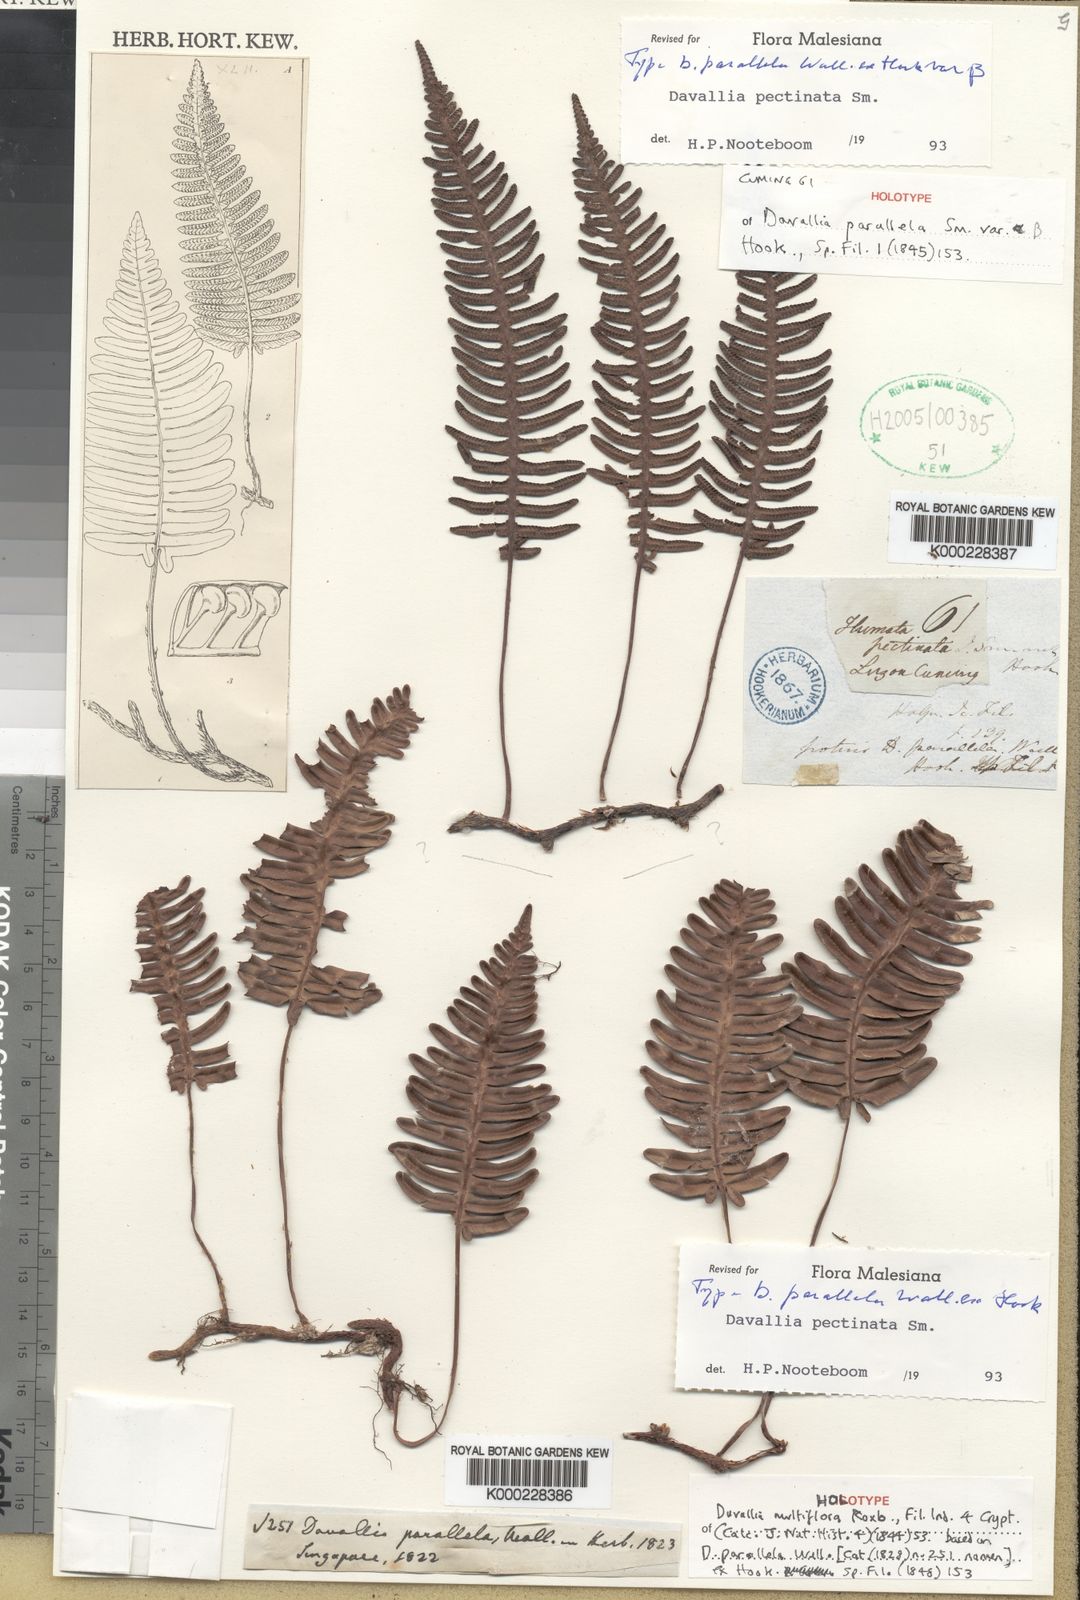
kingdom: Plantae
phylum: Tracheophyta
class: Polypodiopsida
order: Polypodiales
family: Davalliaceae
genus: Davallia
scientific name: Davallia pectinata
